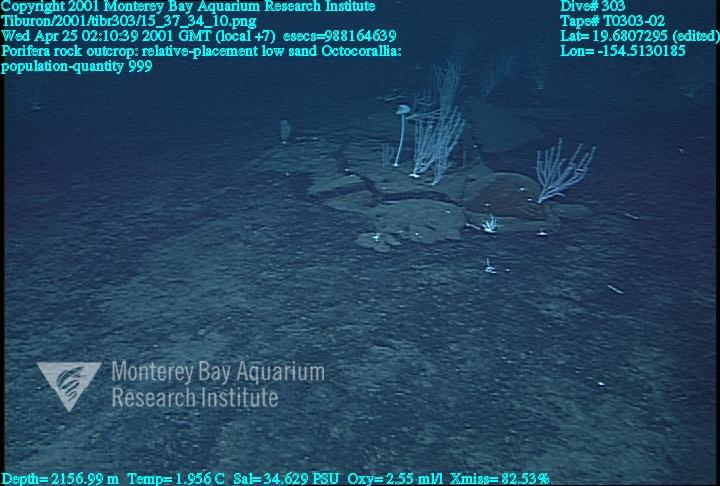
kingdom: Animalia
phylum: Porifera
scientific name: Porifera
